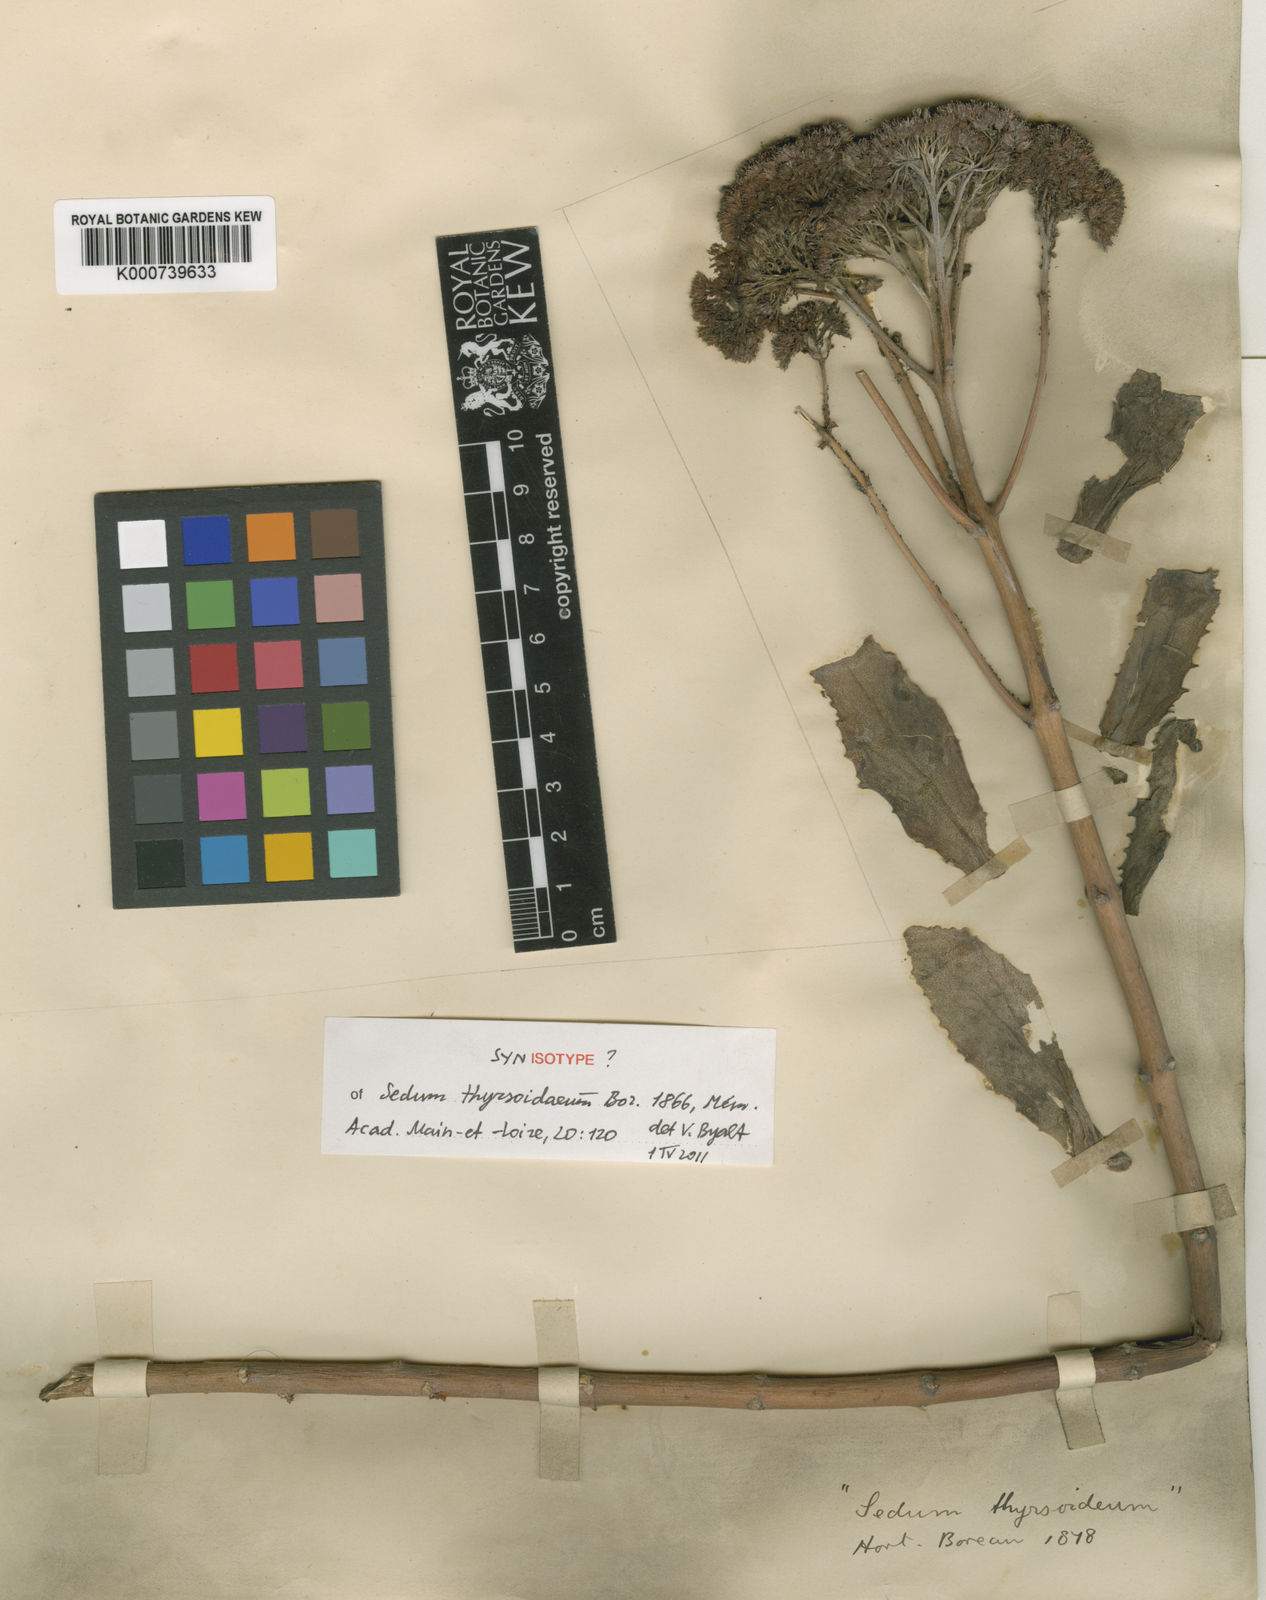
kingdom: Plantae
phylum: Tracheophyta
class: Magnoliopsida
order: Saxifragales
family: Crassulaceae
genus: Hylotelephium
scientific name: Hylotelephium telephium
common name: Live-forever
